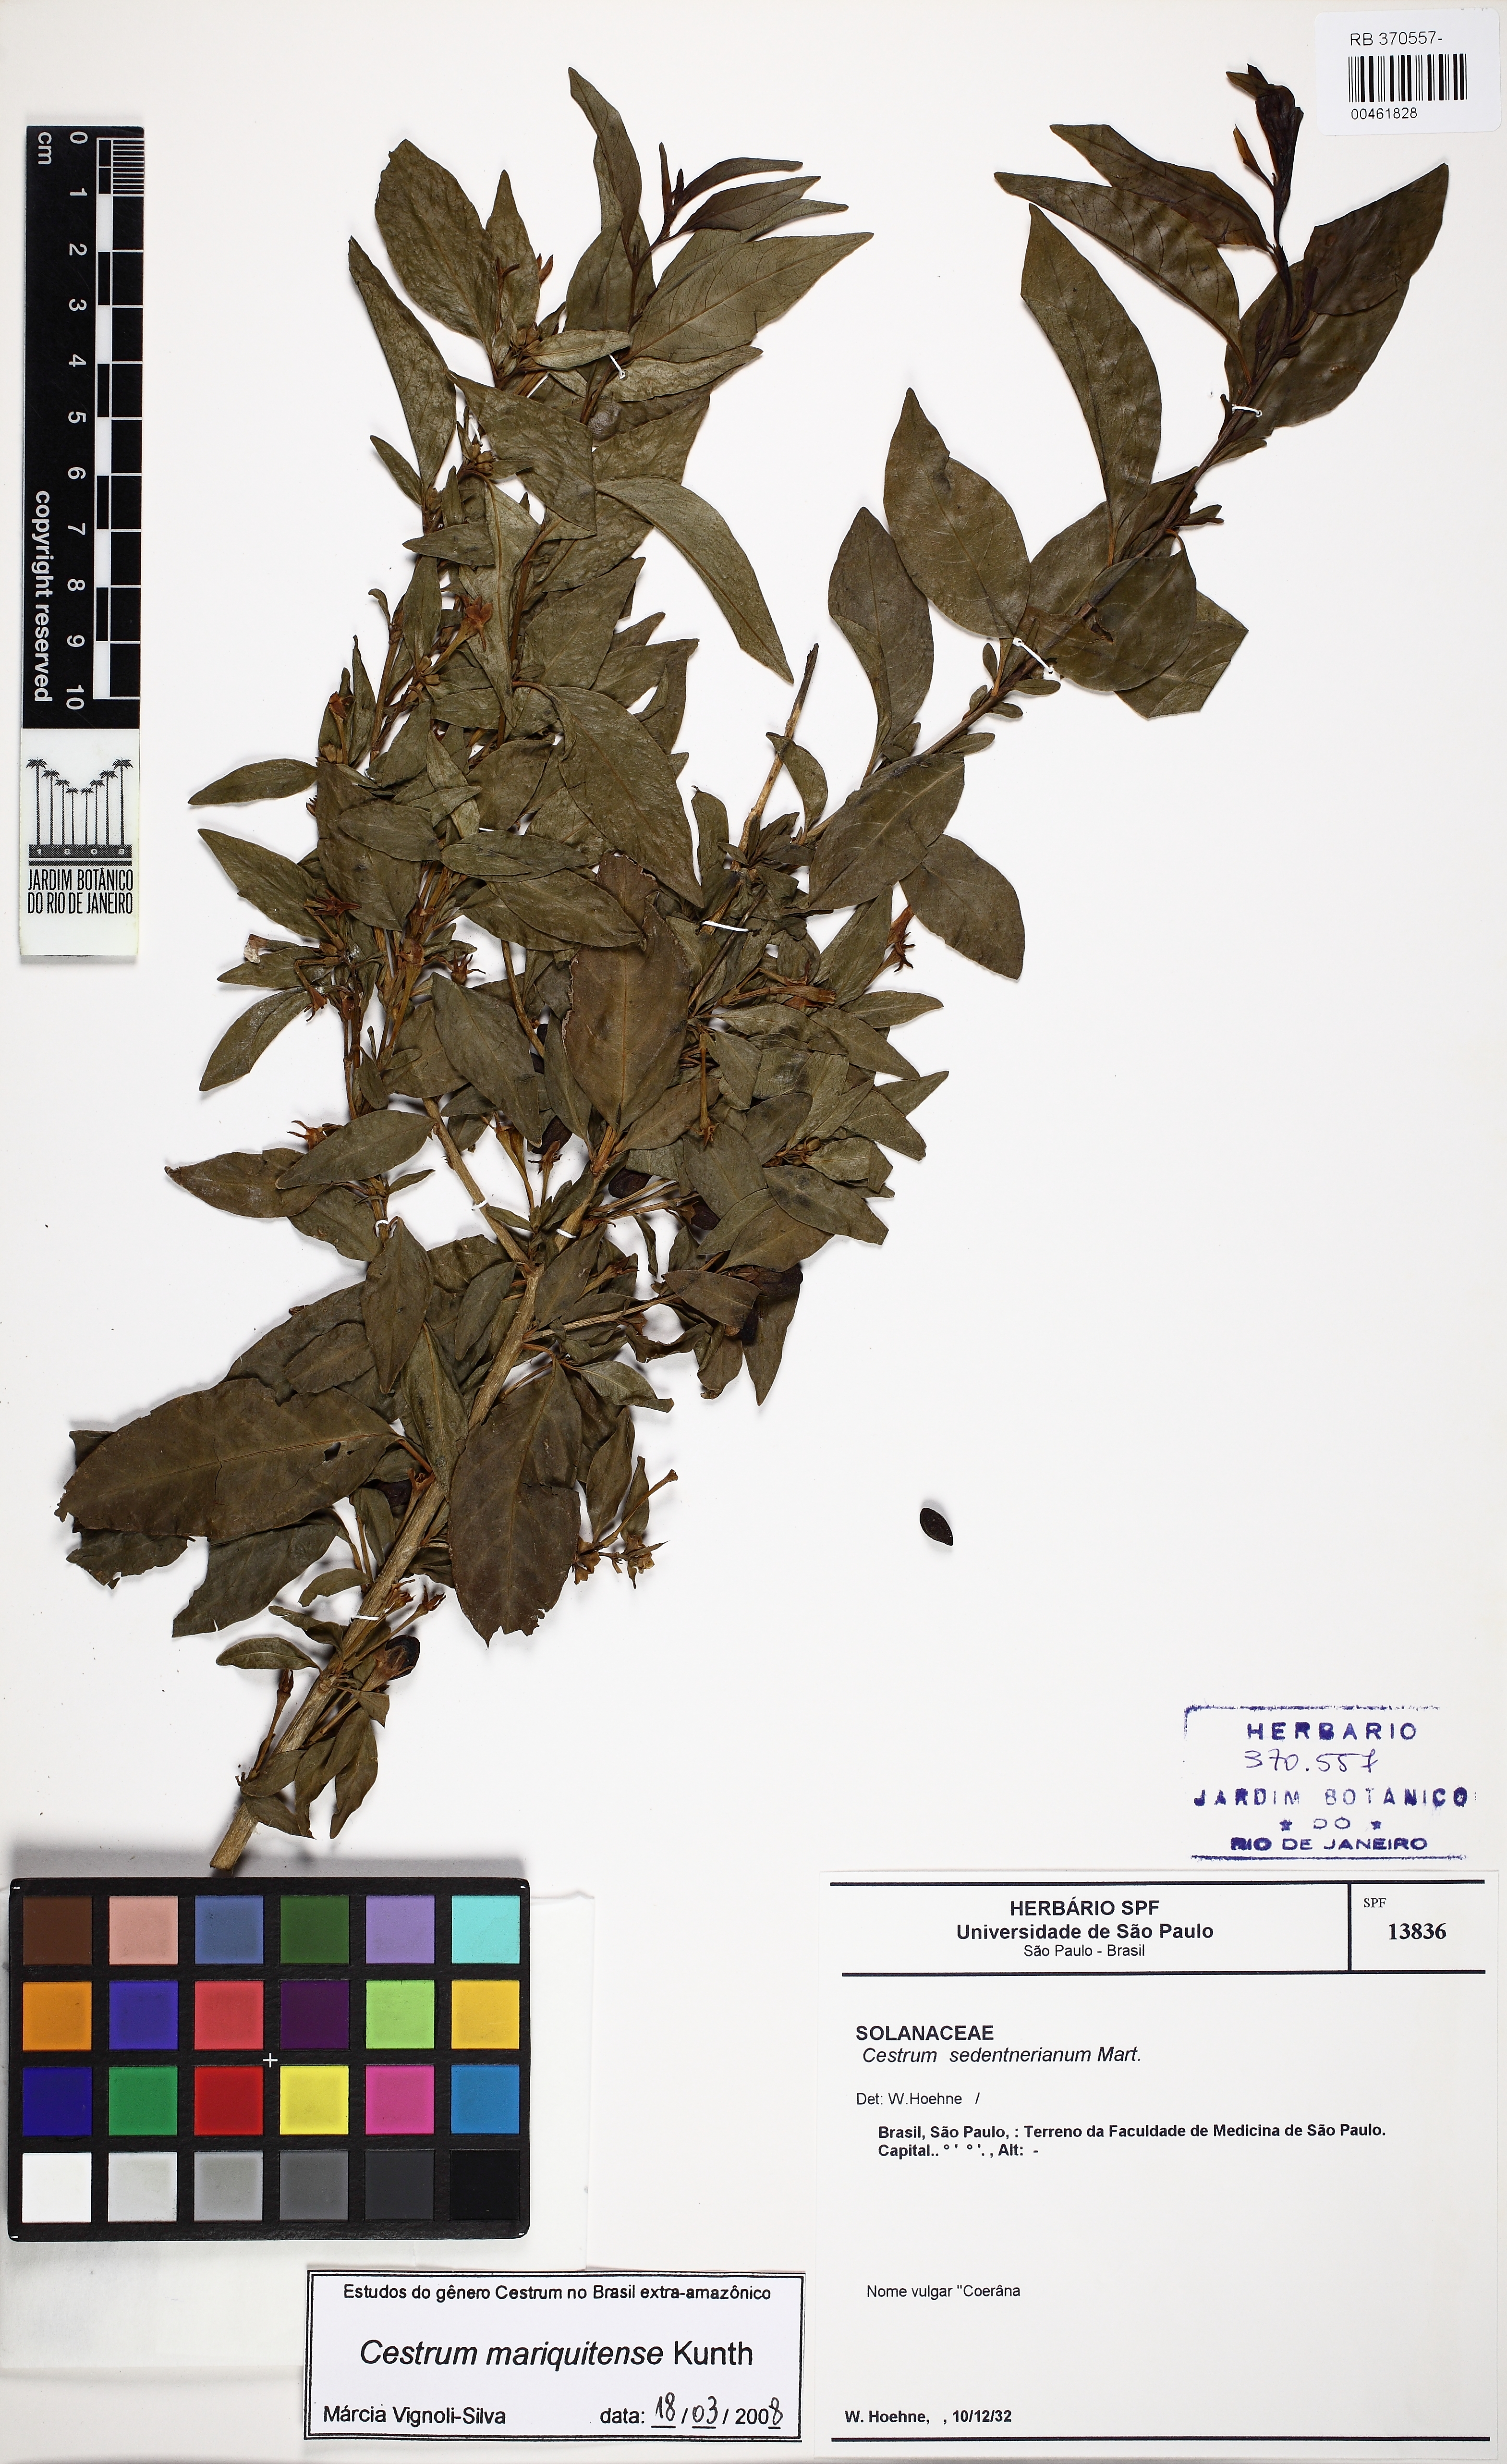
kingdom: Plantae
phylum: Tracheophyta
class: Magnoliopsida
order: Solanales
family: Solanaceae
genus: Cestrum
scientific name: Cestrum mariquitense
